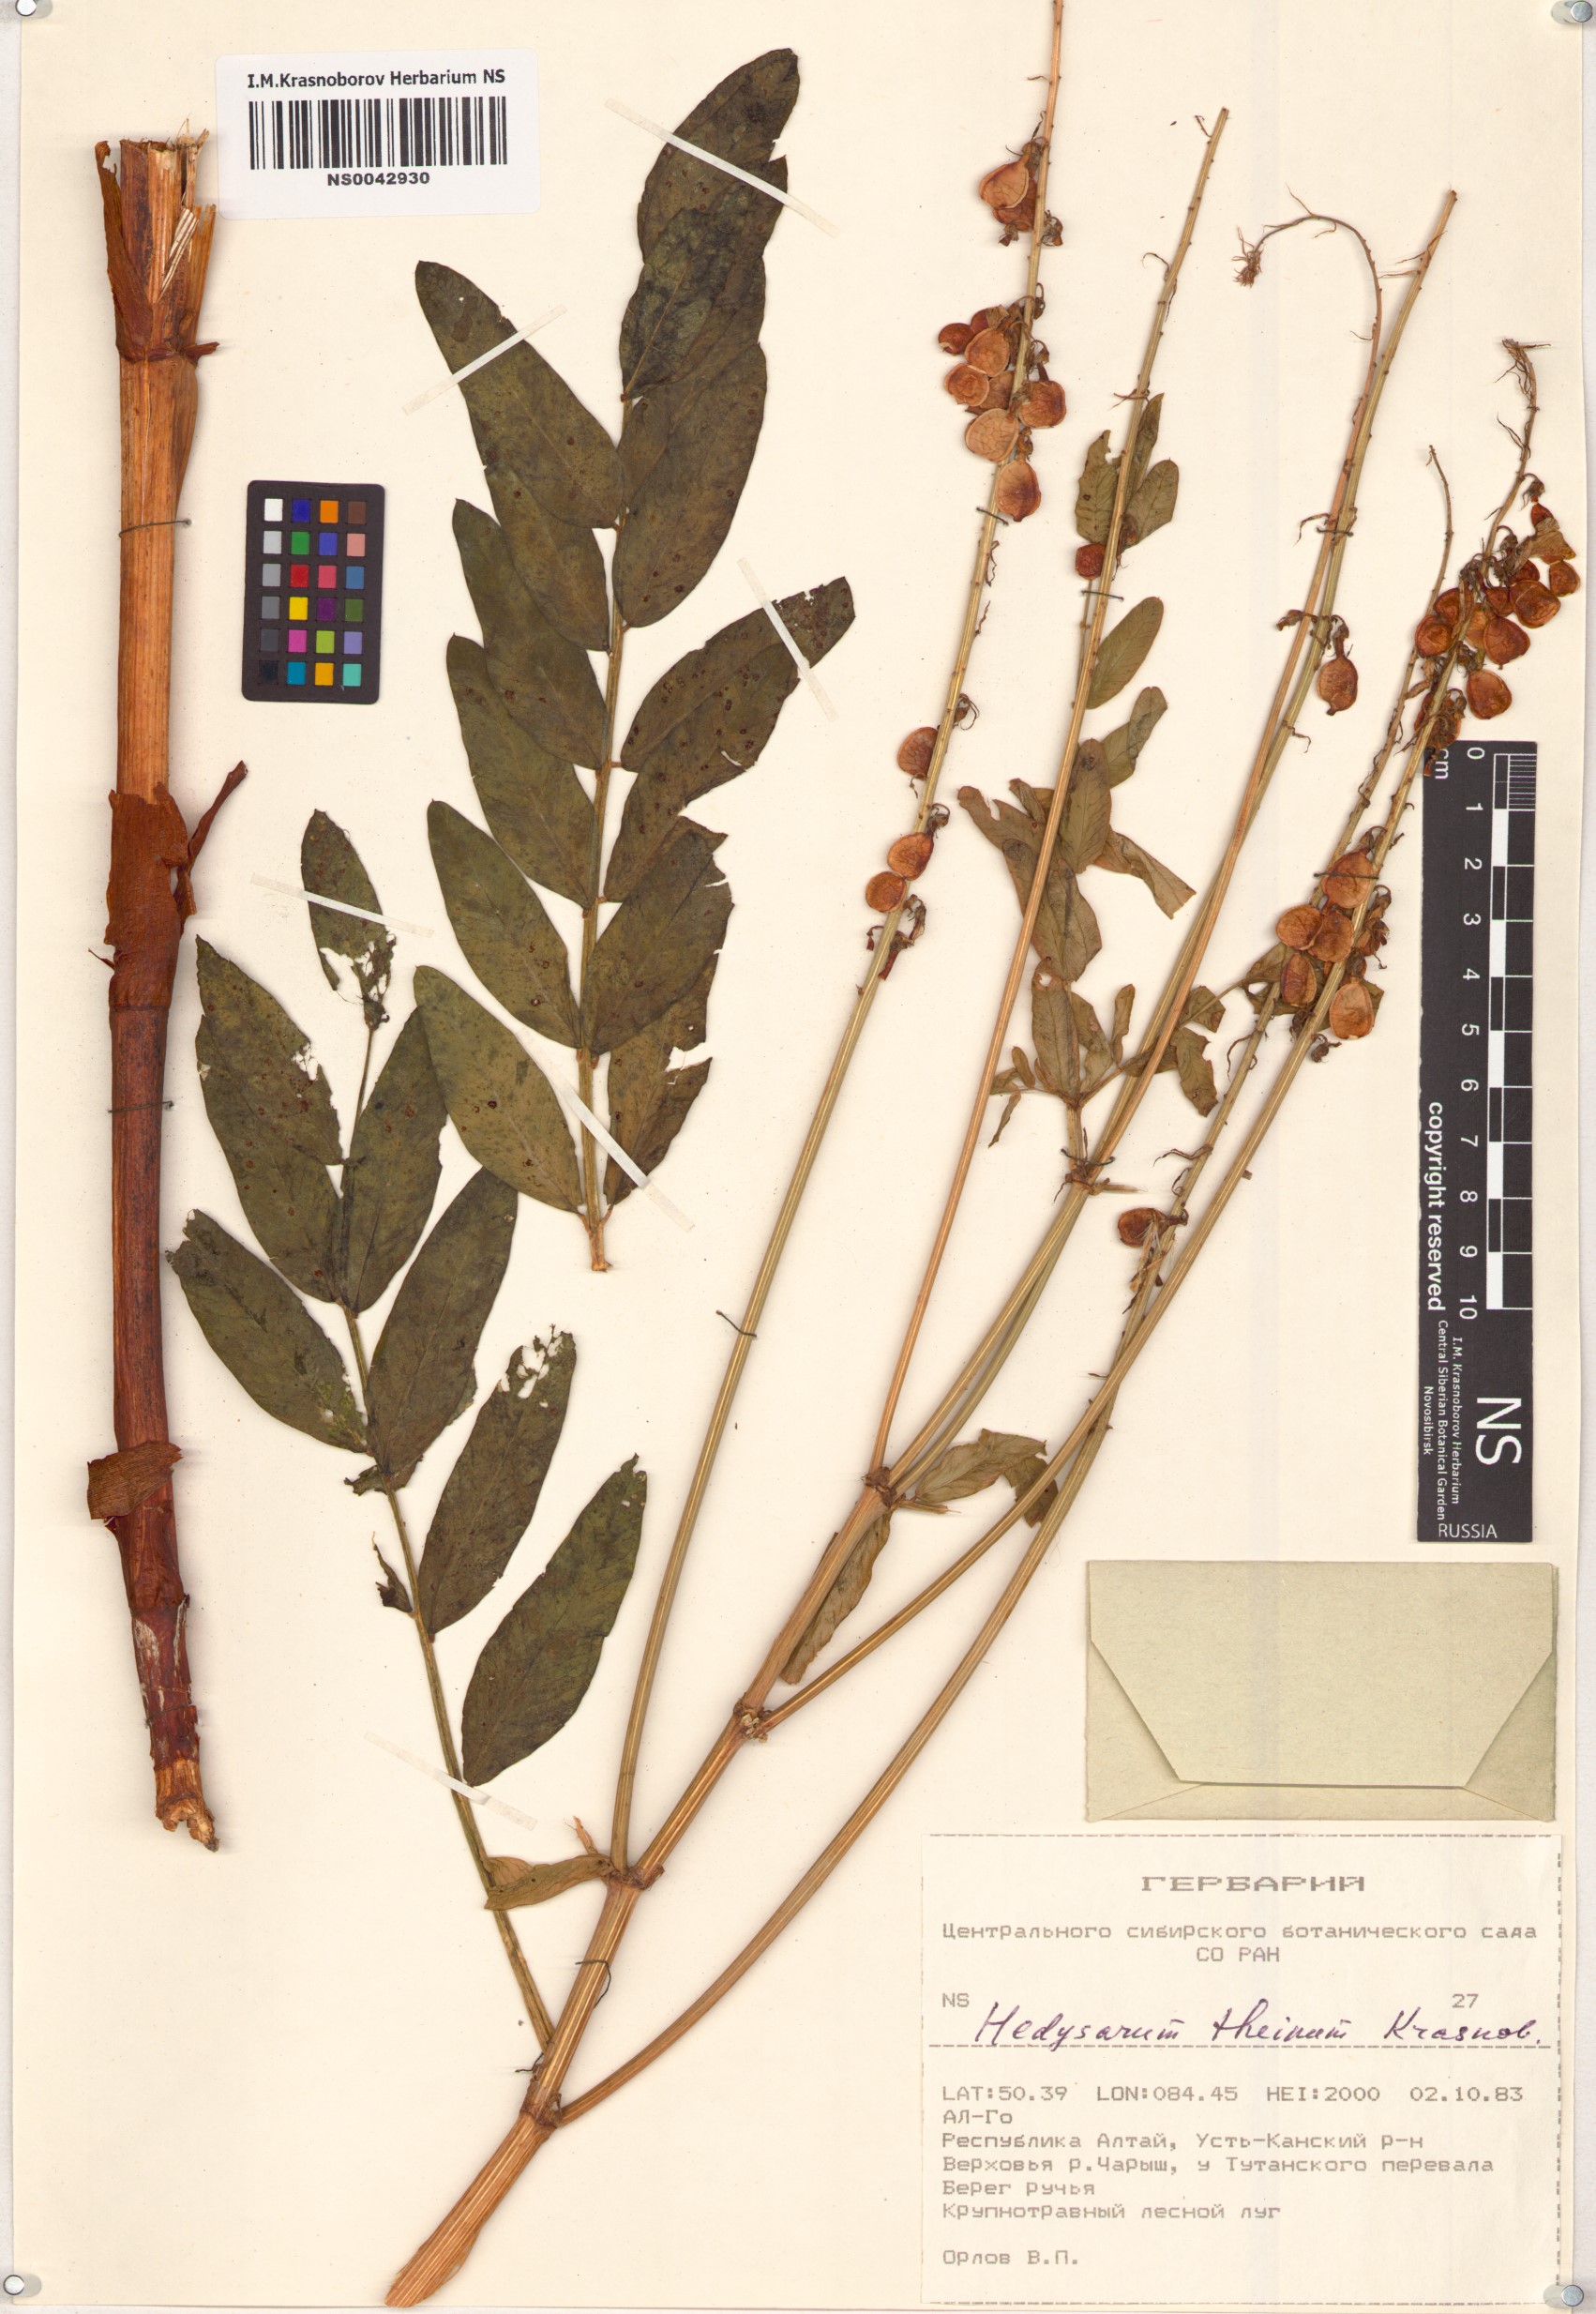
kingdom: Plantae
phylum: Tracheophyta
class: Magnoliopsida
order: Fabales
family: Fabaceae
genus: Hedysarum
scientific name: Hedysarum theinum
